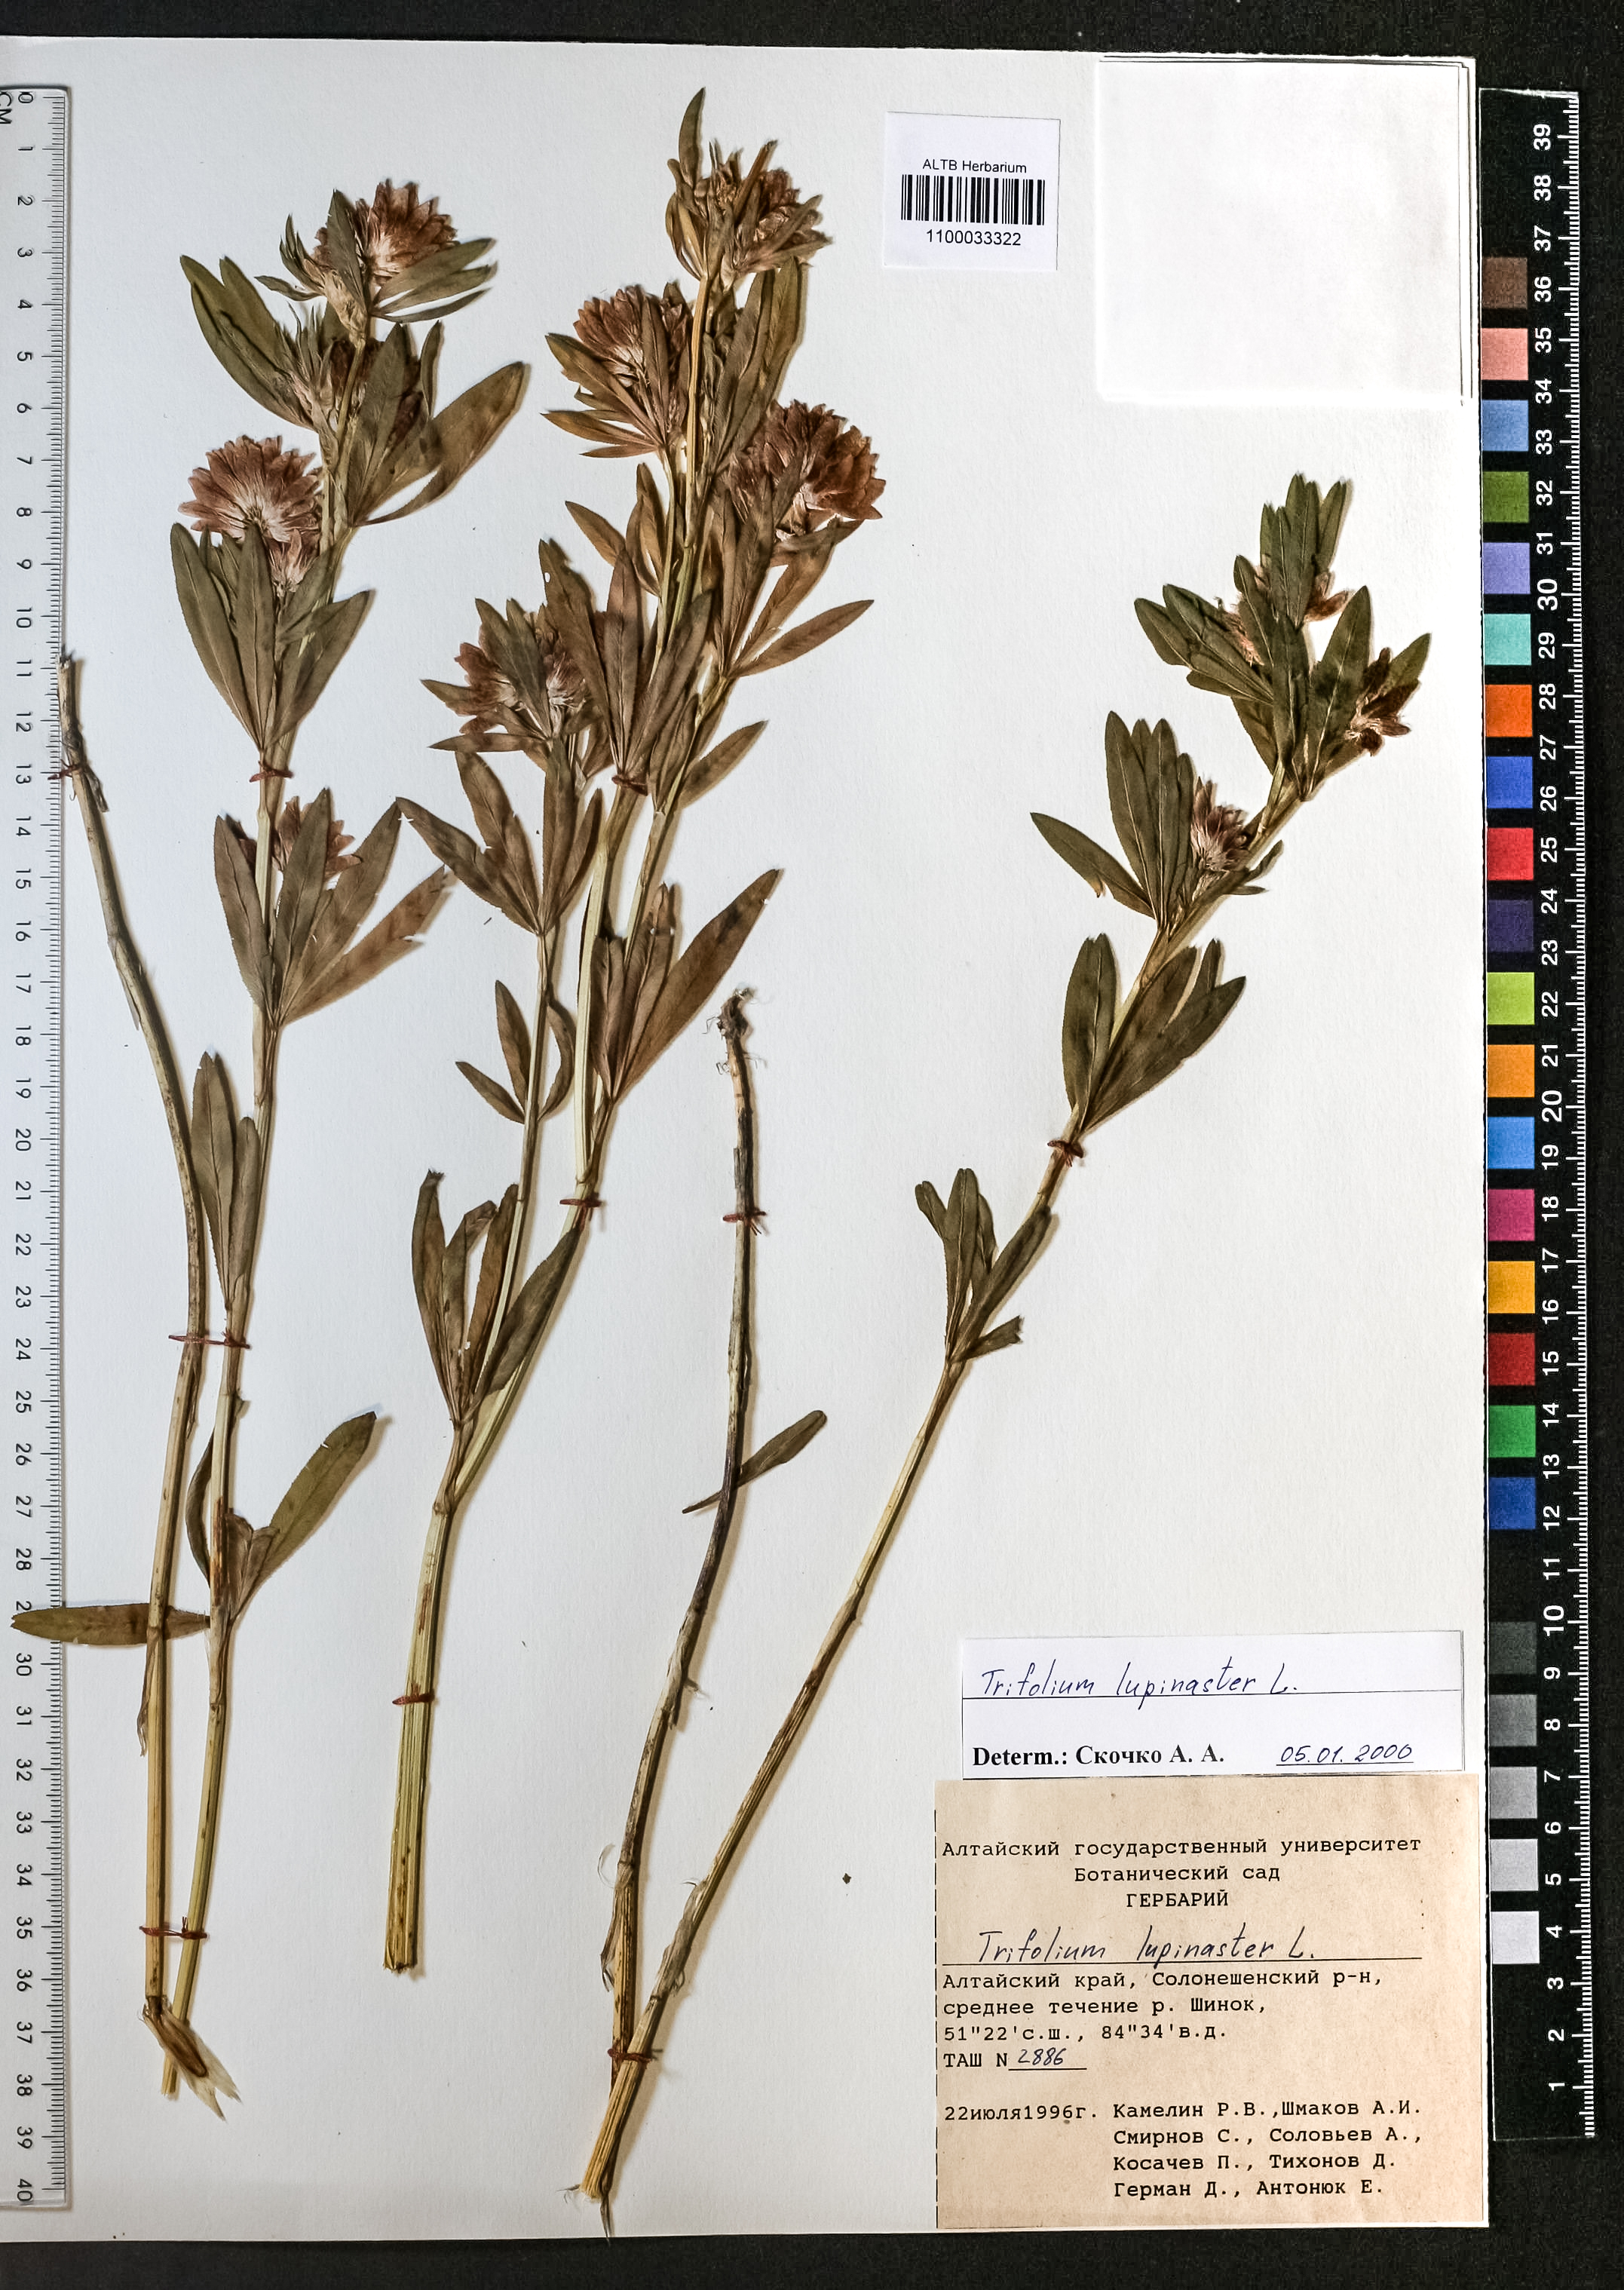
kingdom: Plantae
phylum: Tracheophyta
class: Magnoliopsida
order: Fabales
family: Fabaceae
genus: Trifolium
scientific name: Trifolium lupinaster
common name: Lupine clover
